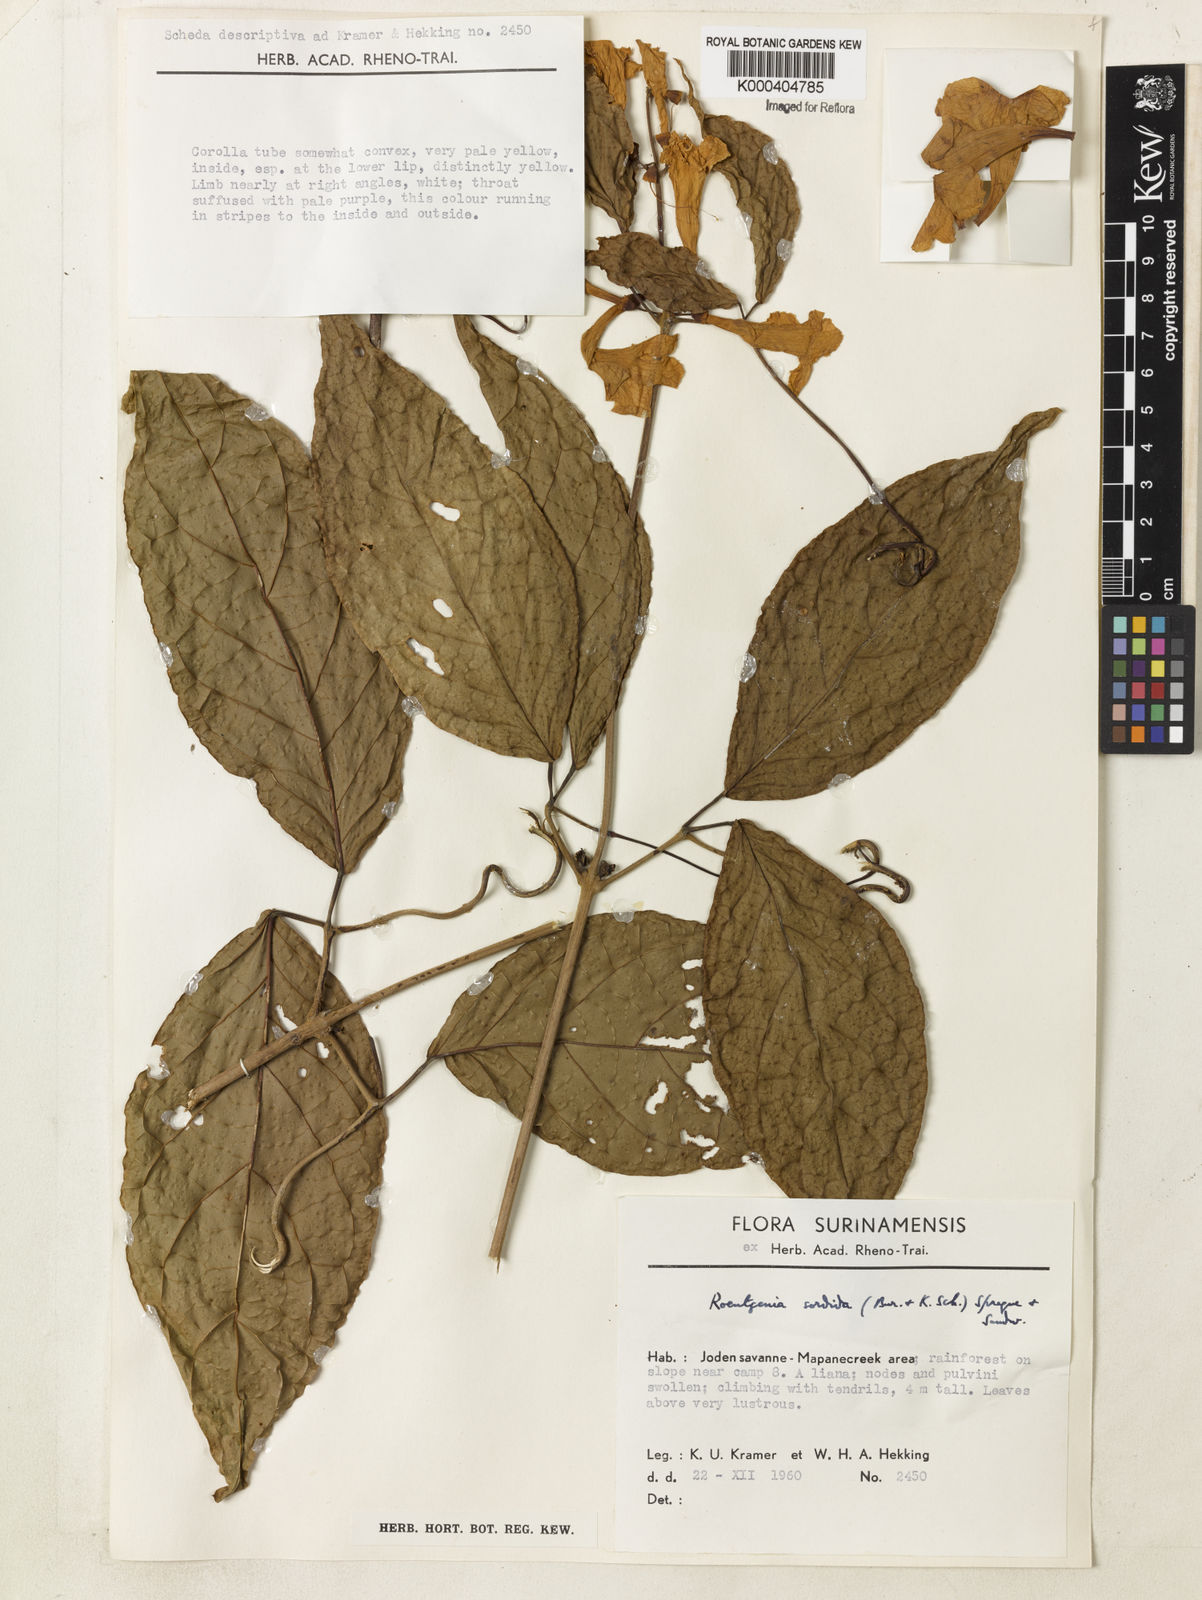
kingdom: Plantae
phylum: Tracheophyta
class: Magnoliopsida
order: Lamiales
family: Bignoniaceae
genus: Bignonia
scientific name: Bignonia sordida
